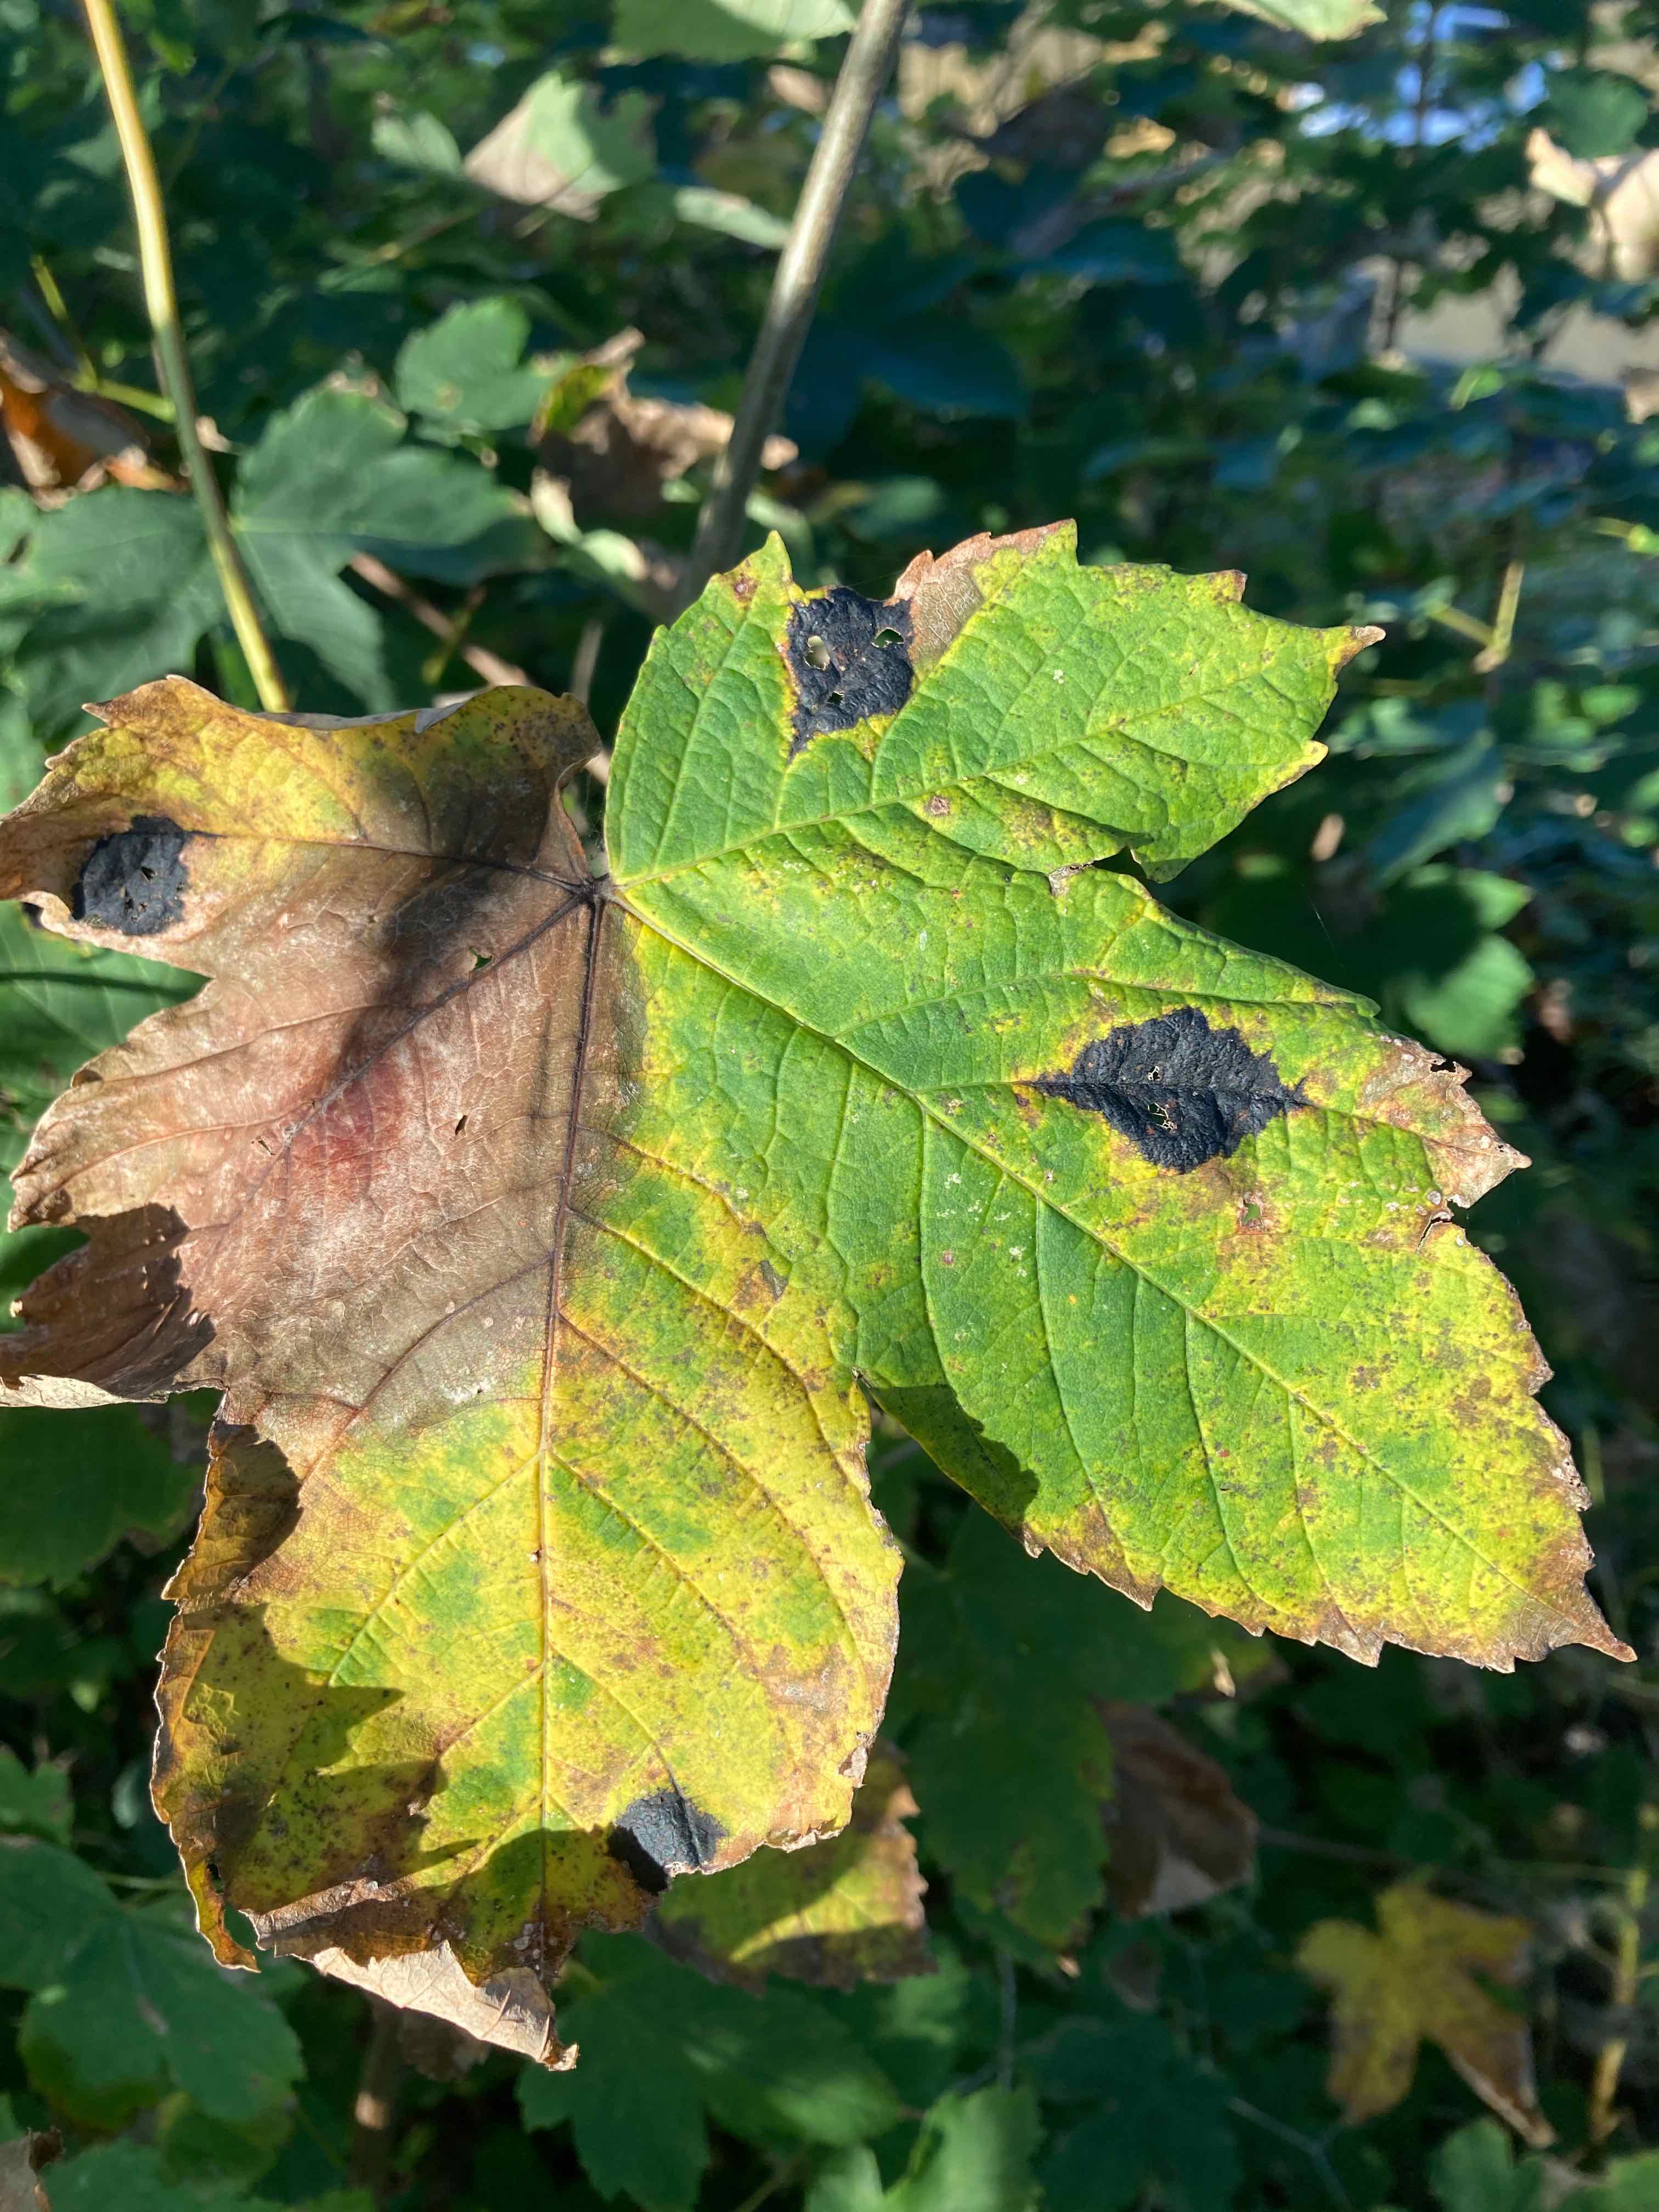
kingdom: Fungi
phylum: Ascomycota
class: Leotiomycetes
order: Rhytismatales
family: Rhytismataceae
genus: Rhytisma
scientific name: Rhytisma acerinum
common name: ahorn-rynkeplet
